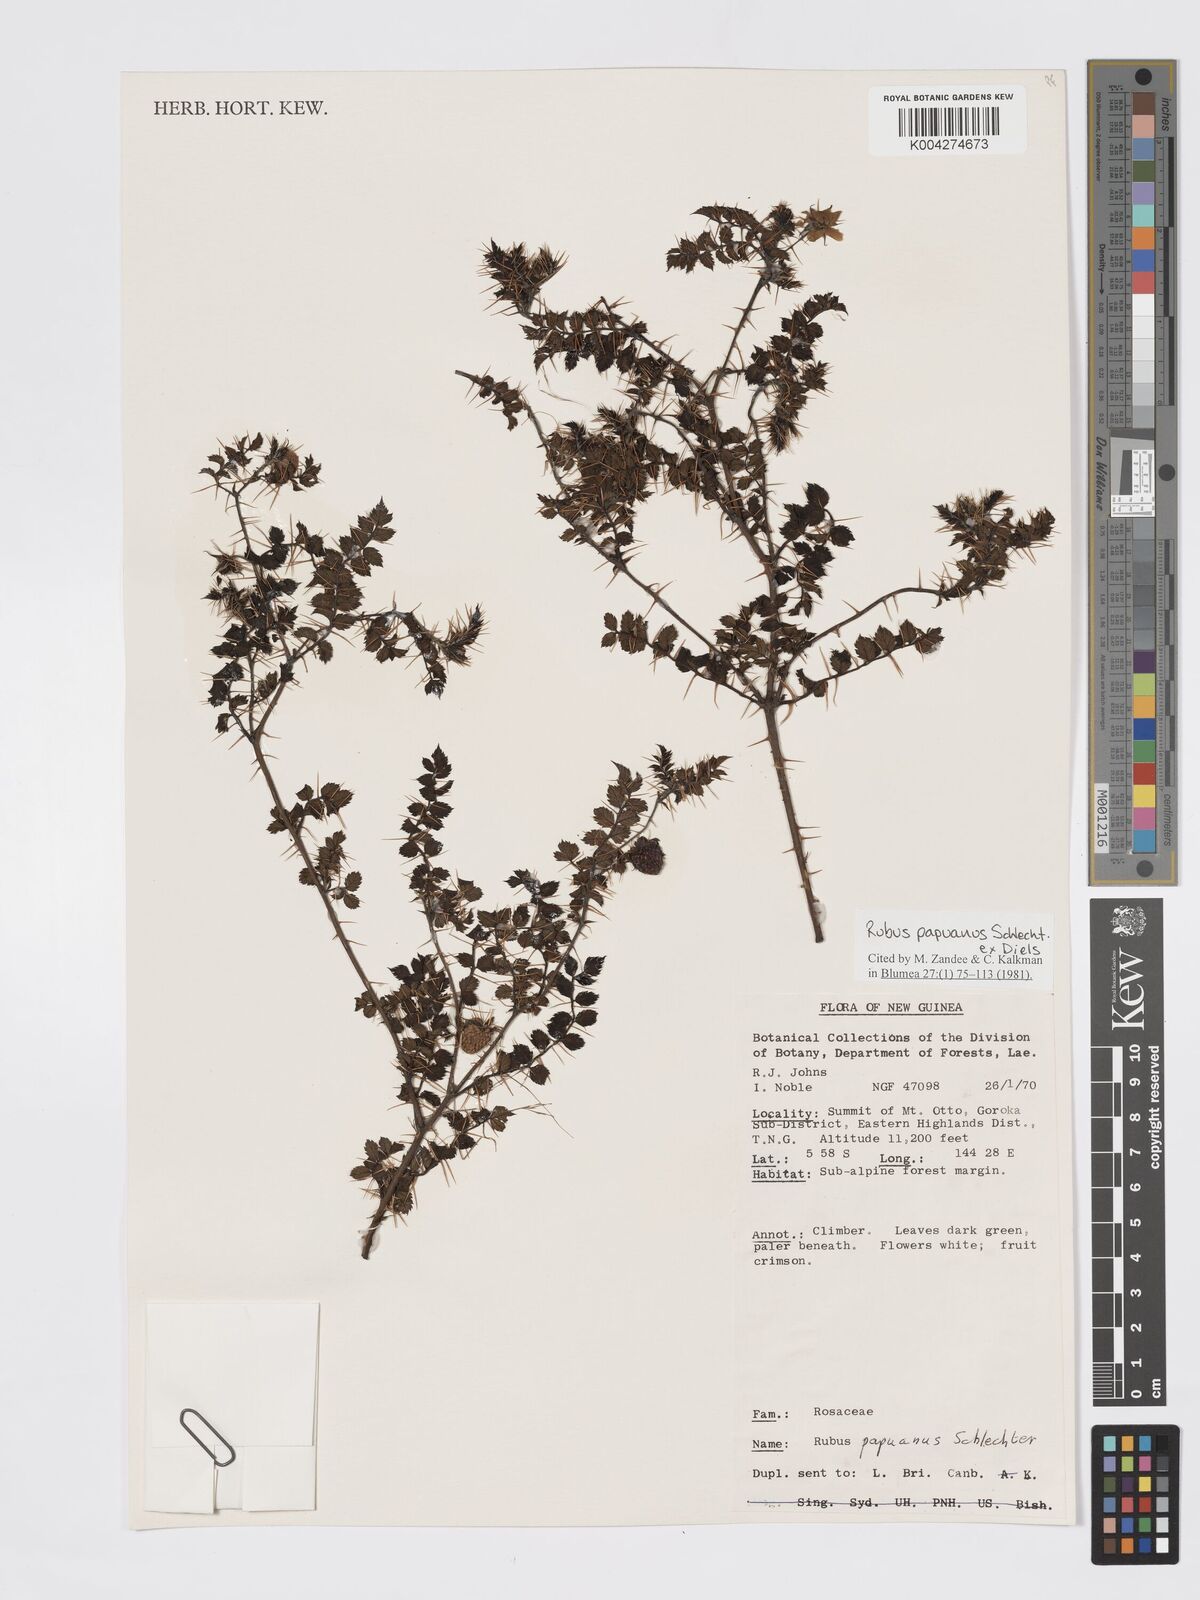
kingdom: Plantae
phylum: Tracheophyta
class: Magnoliopsida
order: Rosales
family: Rosaceae
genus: Rubus
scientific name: Rubus papuanus
